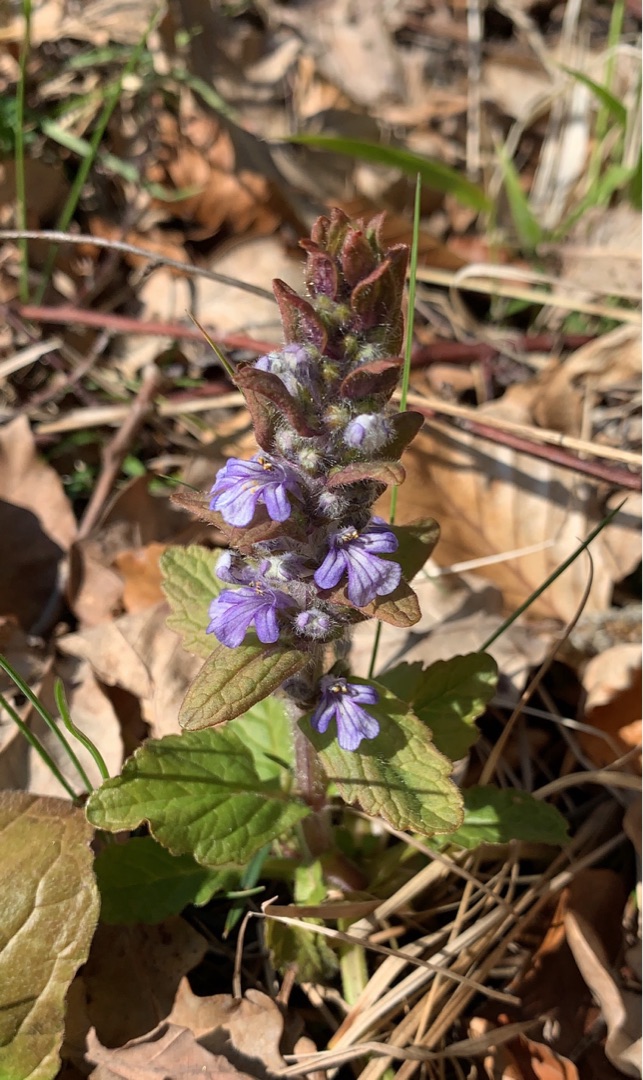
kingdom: Plantae
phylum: Tracheophyta
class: Magnoliopsida
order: Lamiales
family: Lamiaceae
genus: Ajuga
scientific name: Ajuga reptans
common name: Krybende læbeløs
